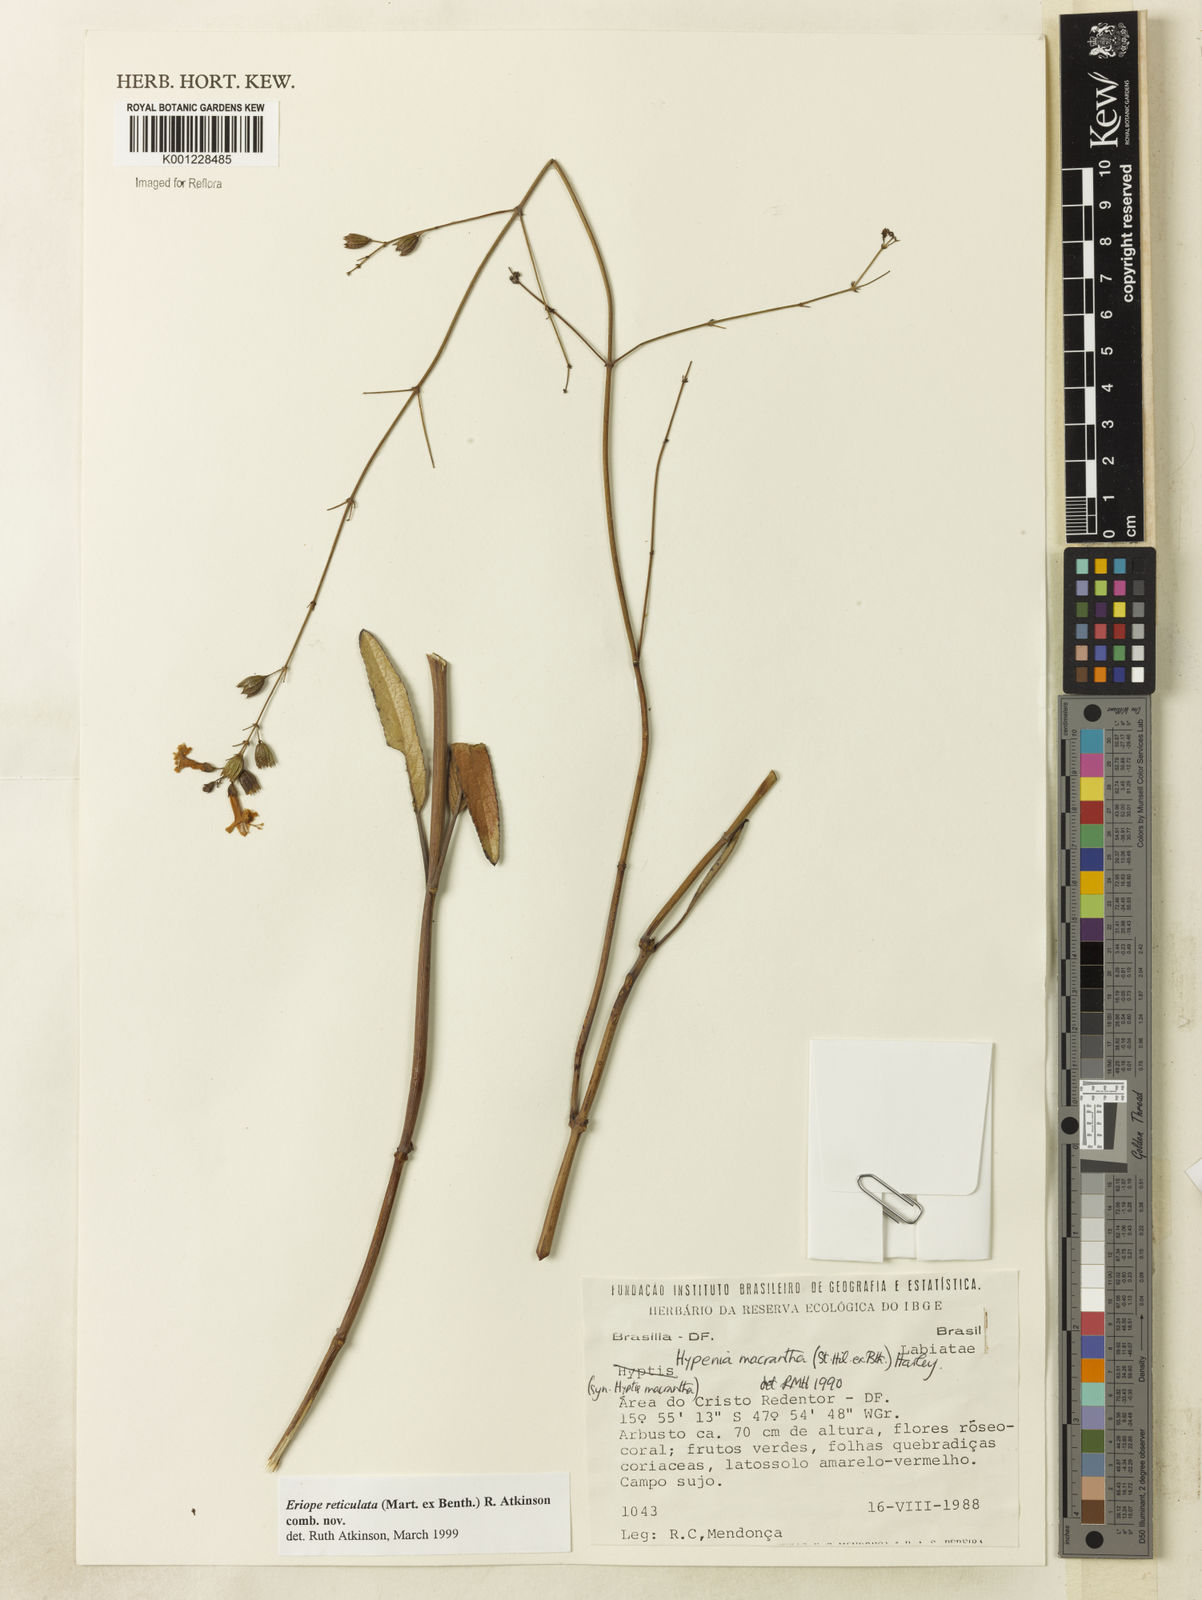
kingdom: Plantae
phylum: Tracheophyta
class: Magnoliopsida
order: Lamiales
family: Lamiaceae
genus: Hypenia
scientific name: Hypenia reticulata
